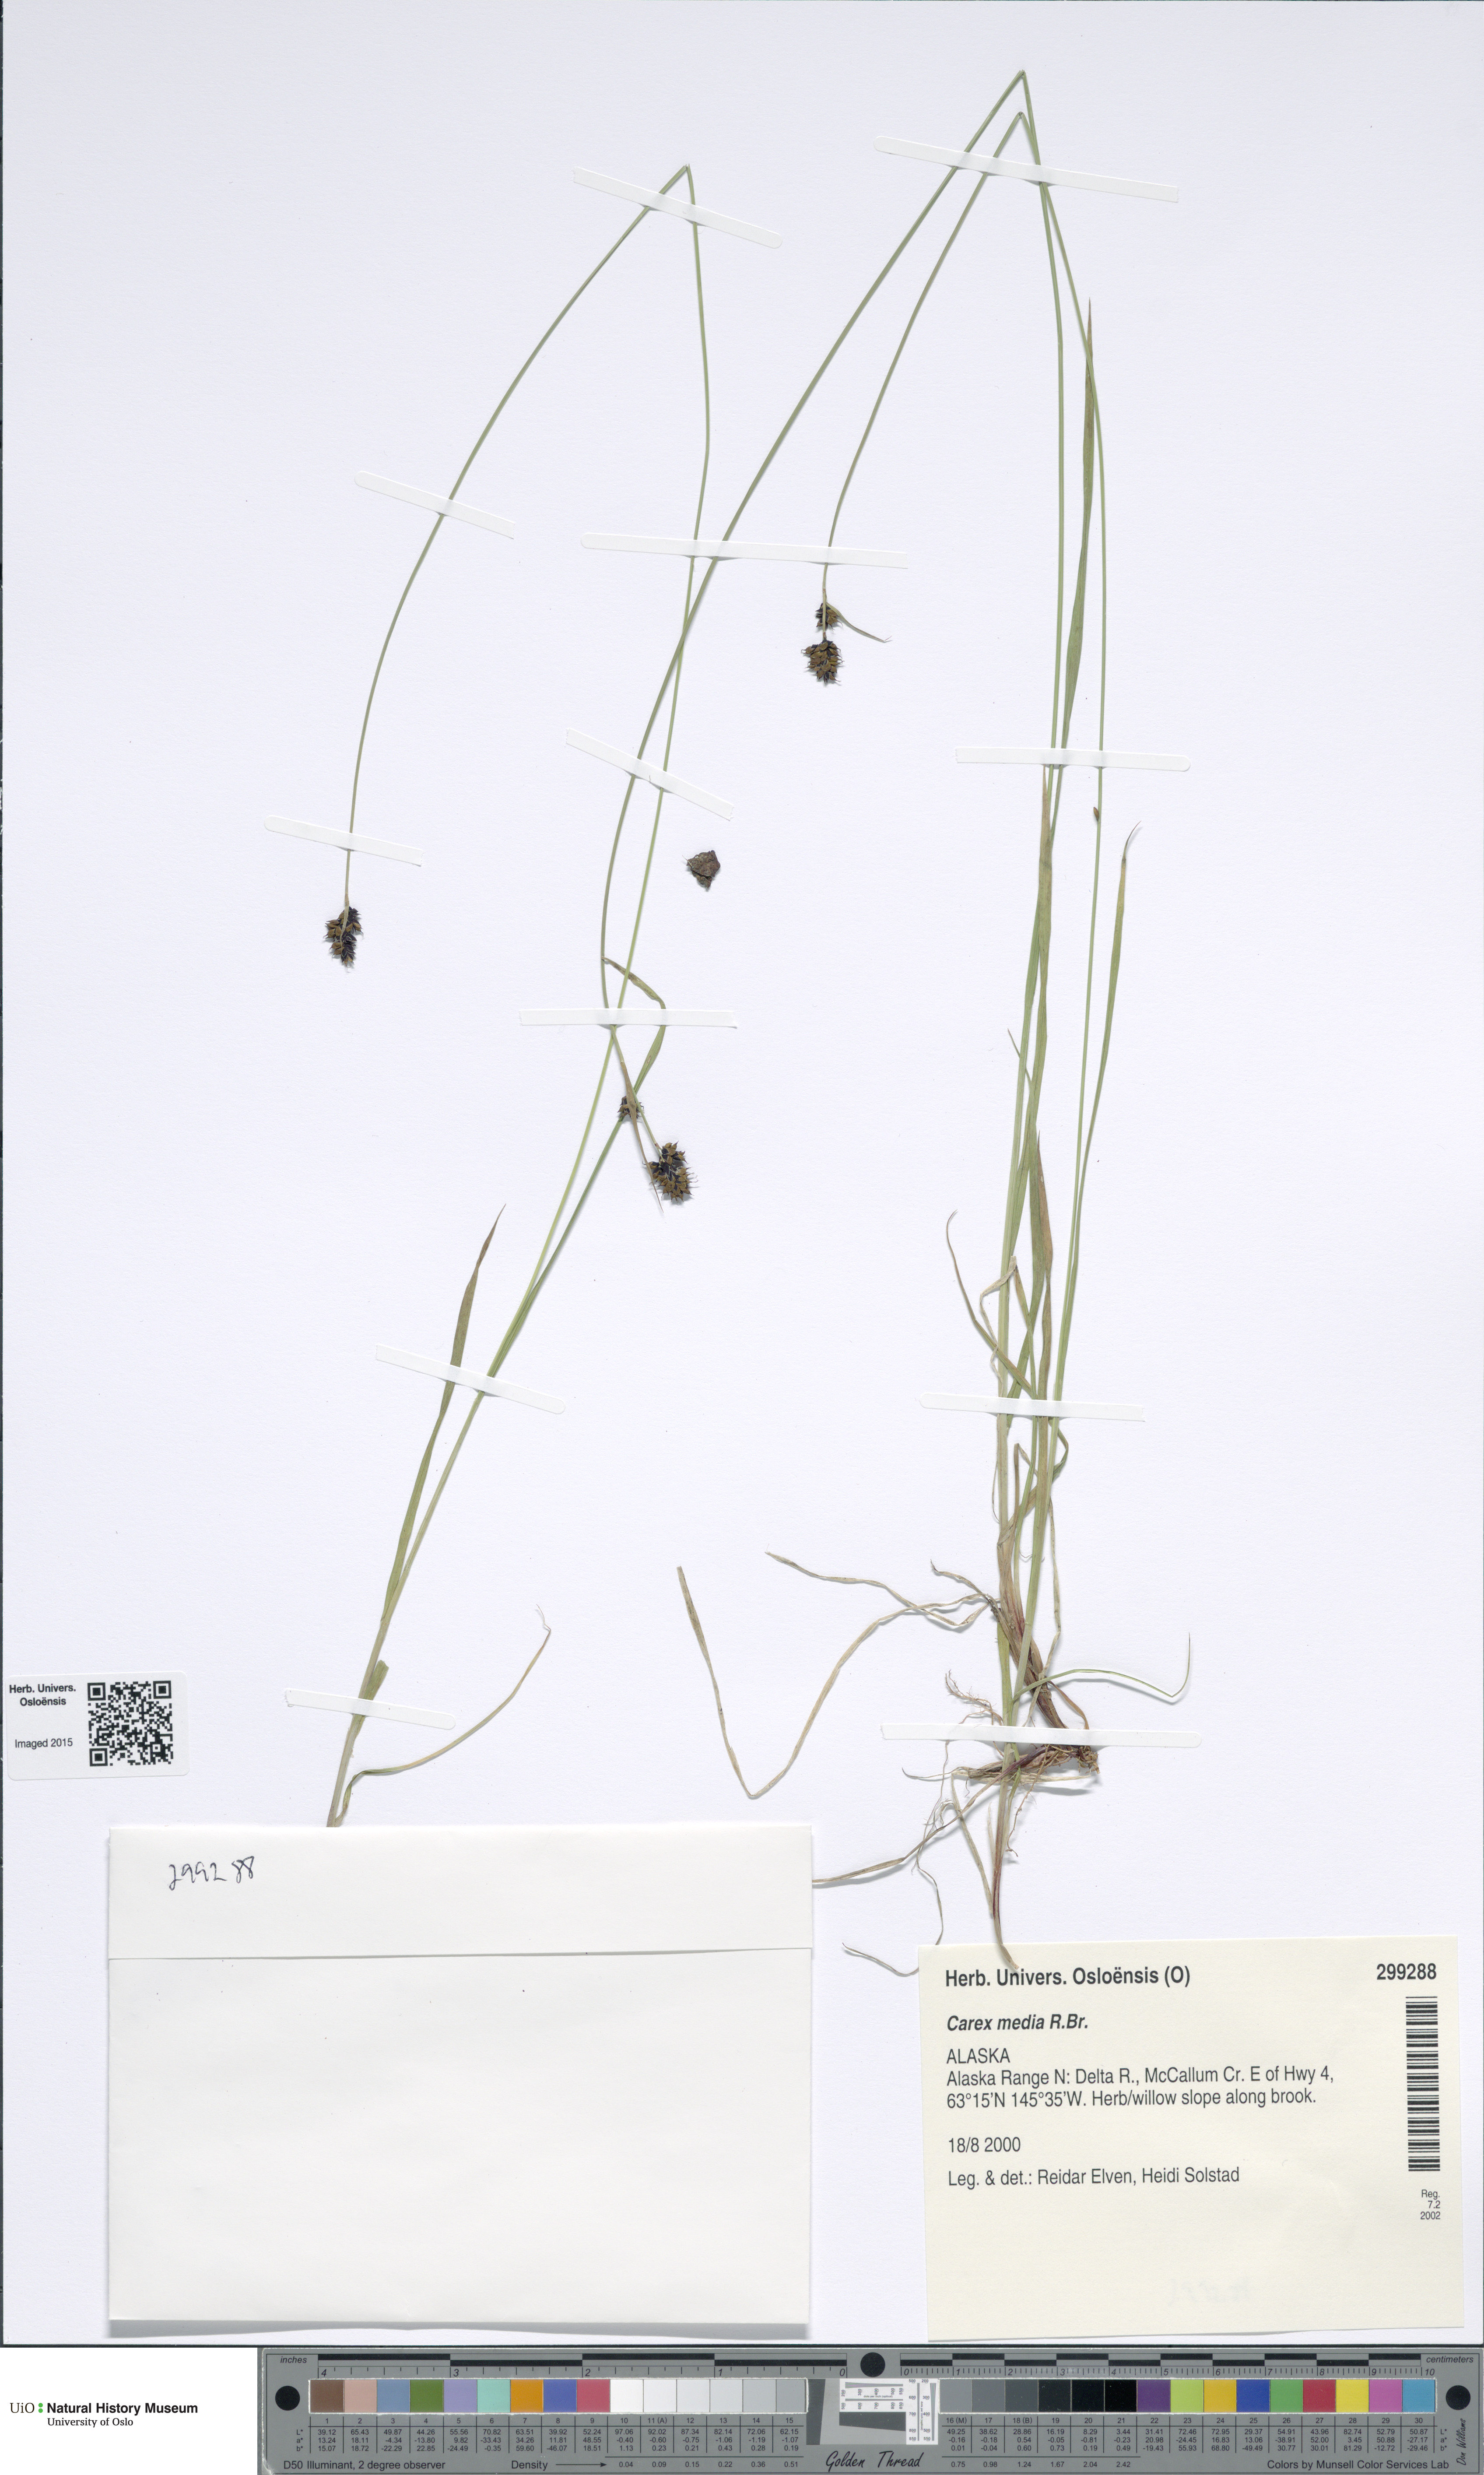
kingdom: Plantae
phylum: Tracheophyta
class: Liliopsida
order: Poales
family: Cyperaceae
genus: Carex
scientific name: Carex media
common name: Alpine sedge
